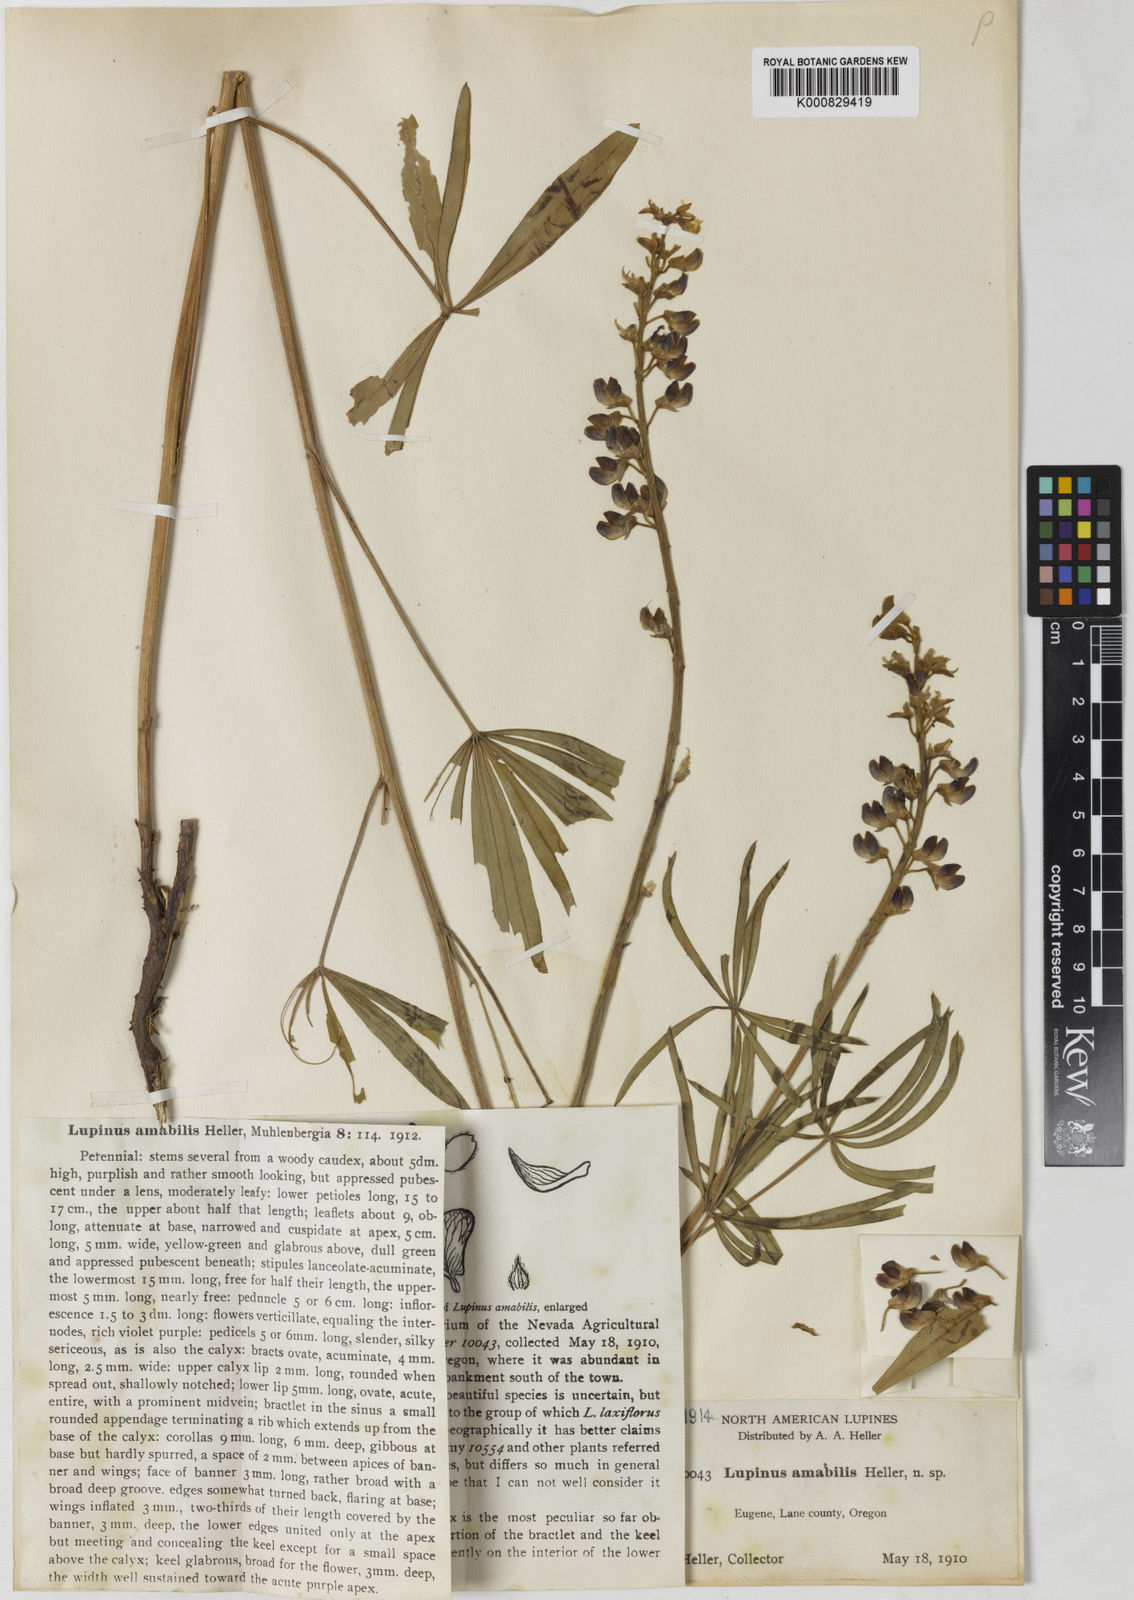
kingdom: Plantae
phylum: Tracheophyta
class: Magnoliopsida
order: Fabales
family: Fabaceae
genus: Lupinus
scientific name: Lupinus oreganus
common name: Kincaid's lupine
